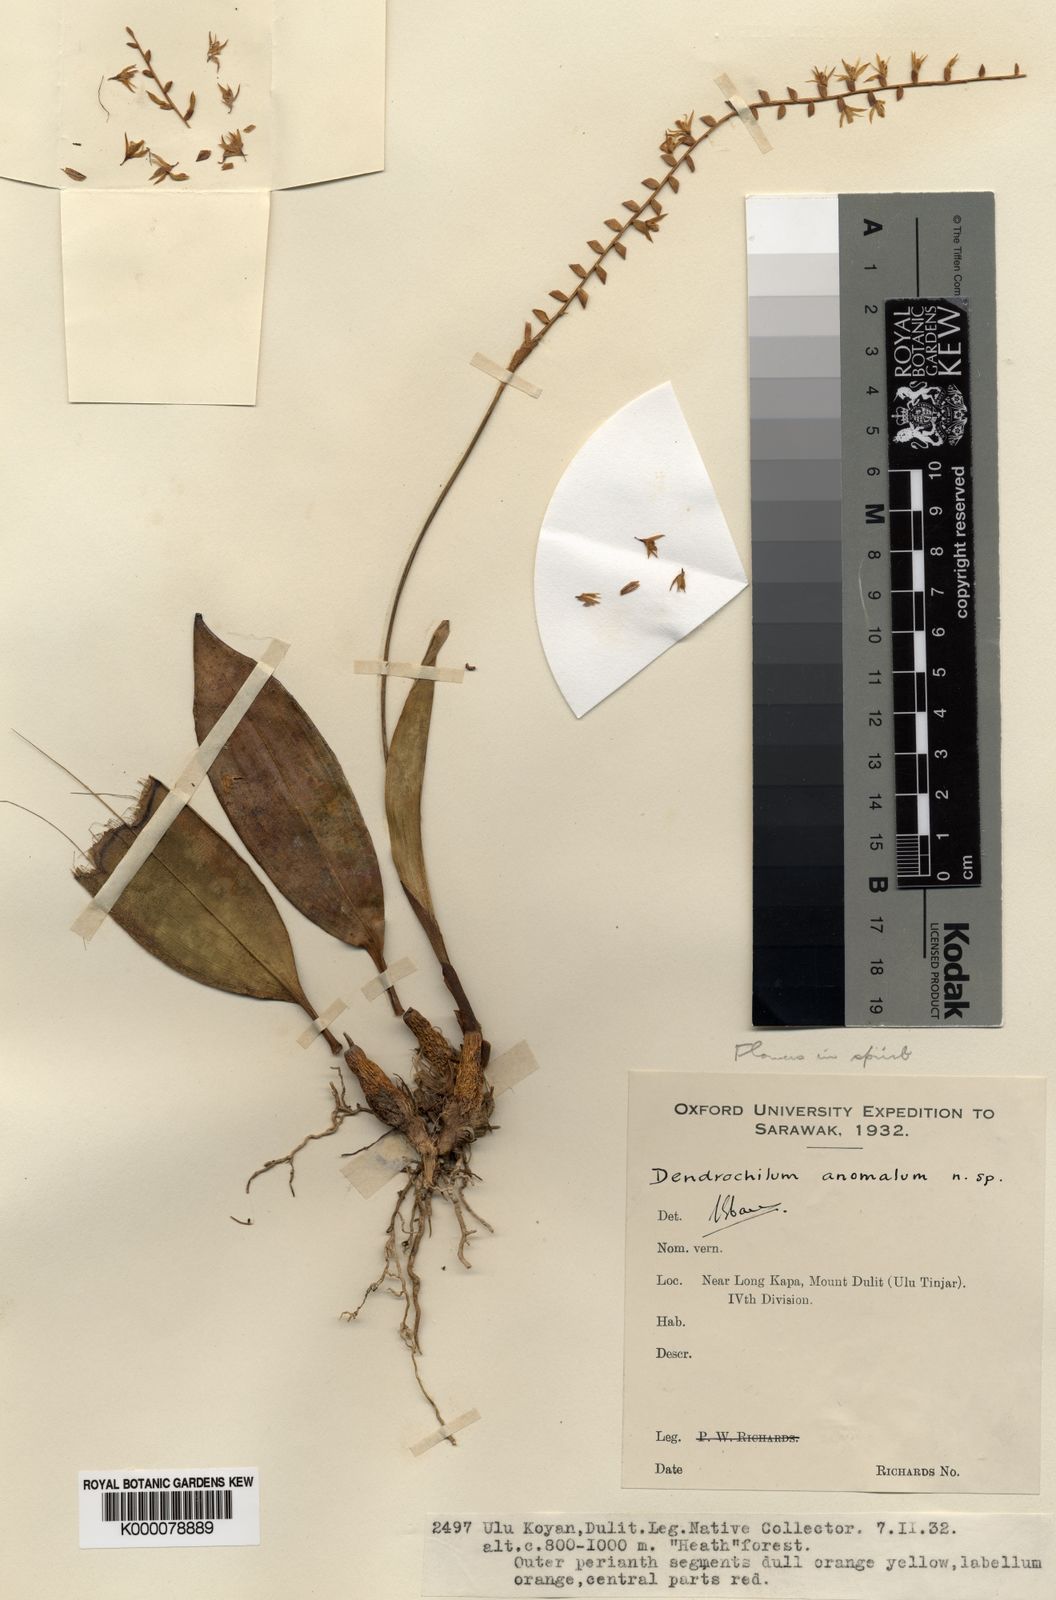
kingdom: Plantae
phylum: Tracheophyta
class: Liliopsida
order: Asparagales
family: Orchidaceae
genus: Coelogyne
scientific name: Coelogyne anomala
